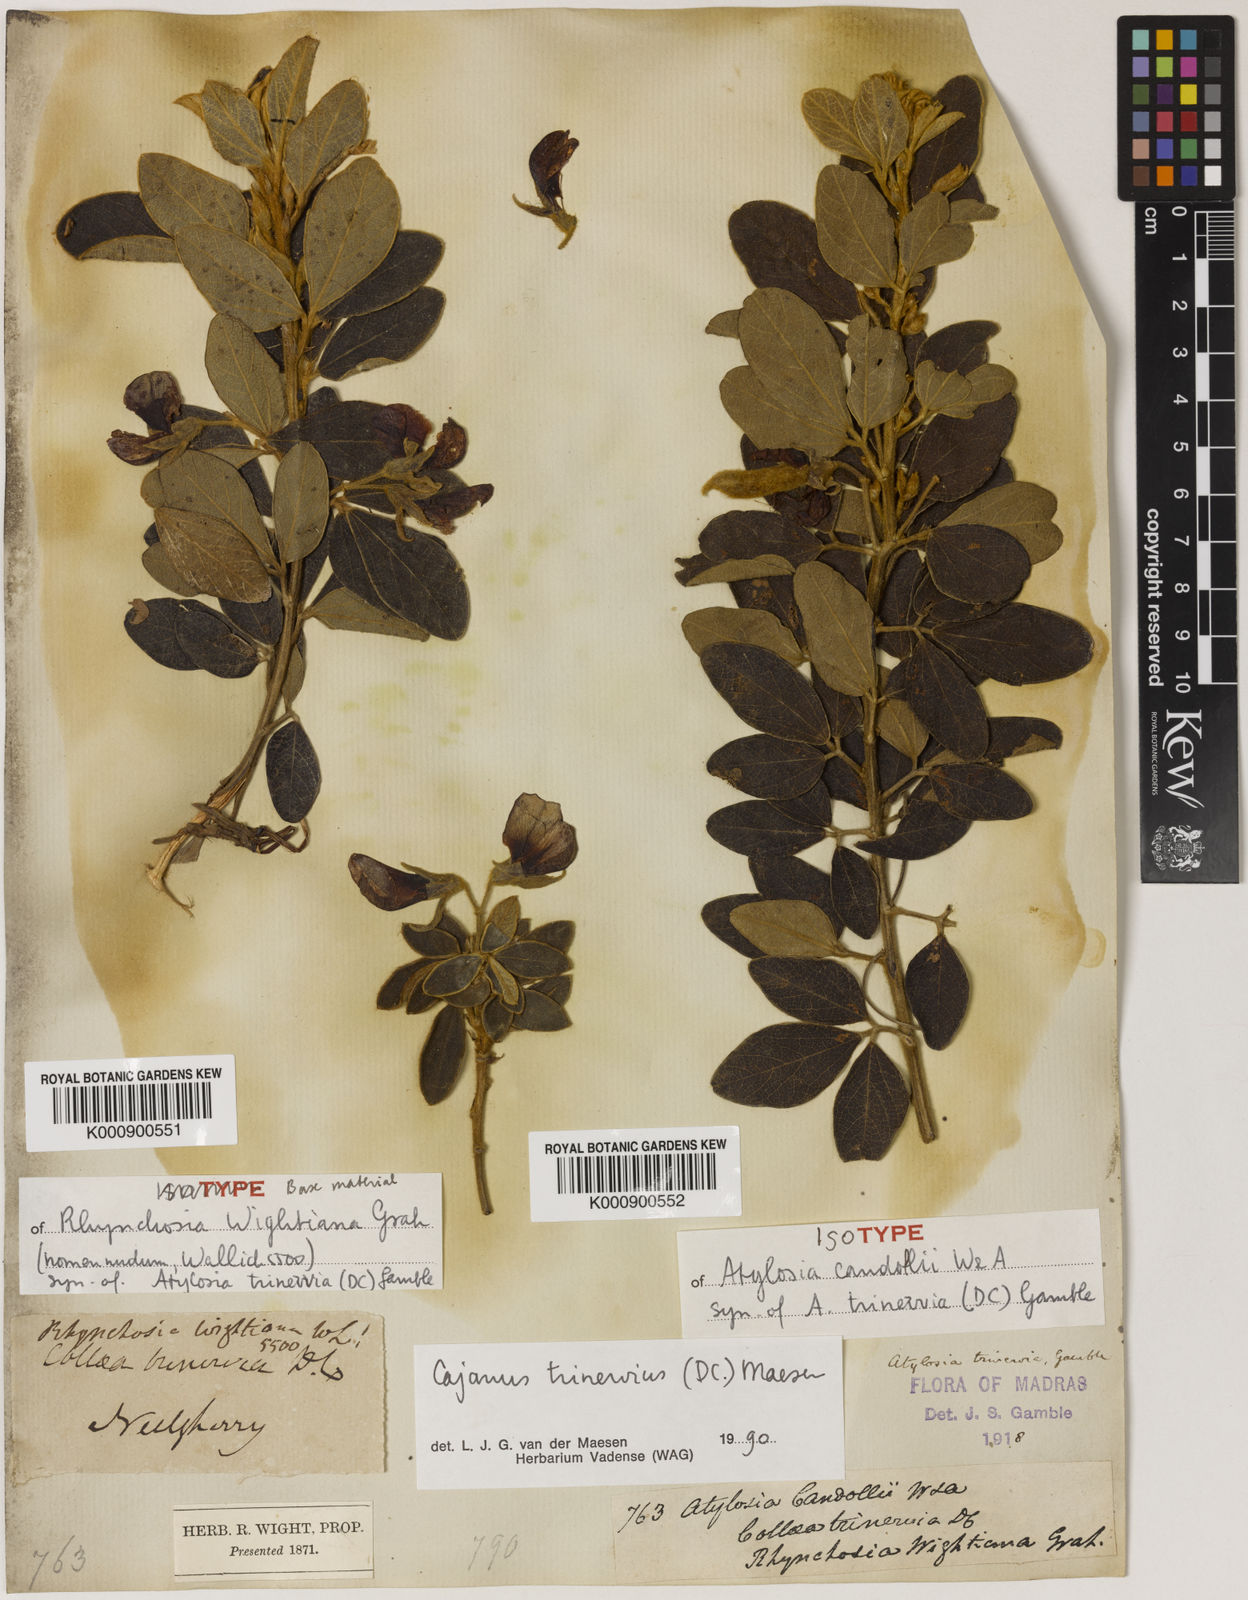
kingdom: Plantae
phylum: Tracheophyta
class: Magnoliopsida
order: Fabales
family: Fabaceae
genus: Cajanus
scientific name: Cajanus
